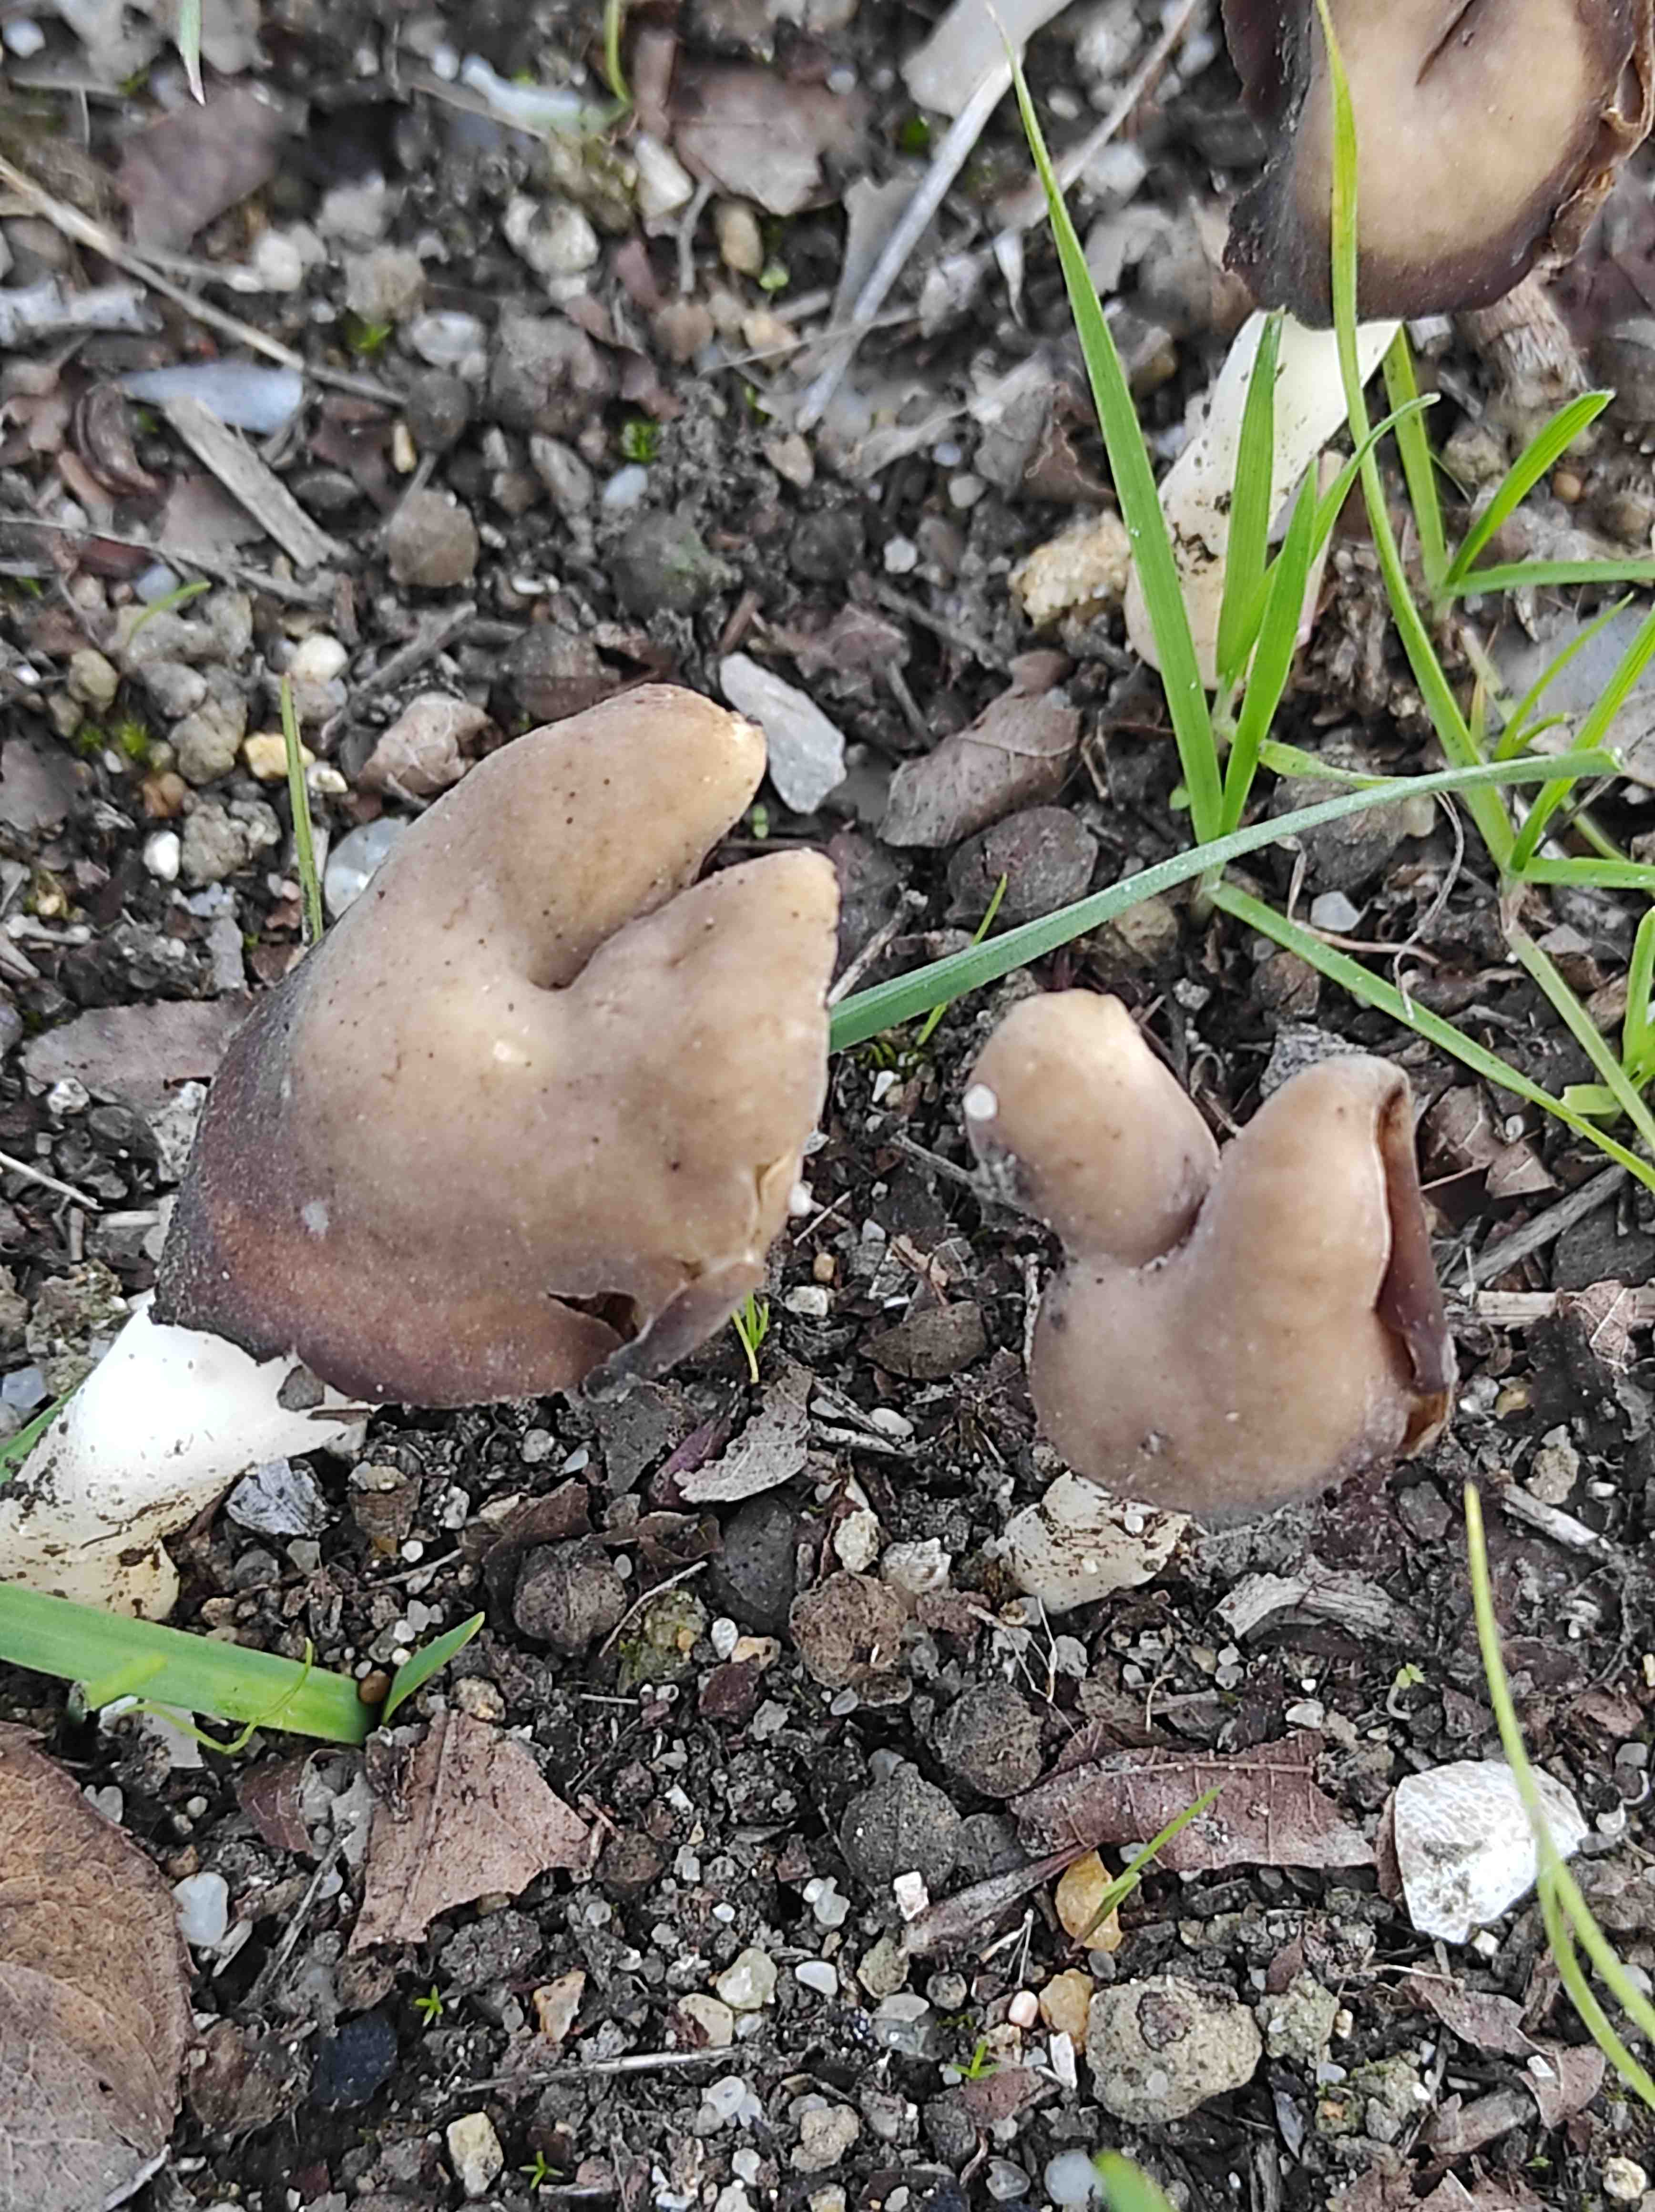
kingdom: Fungi
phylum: Ascomycota
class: Pezizomycetes
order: Pezizales
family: Helvellaceae
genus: Helvella
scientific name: Helvella
